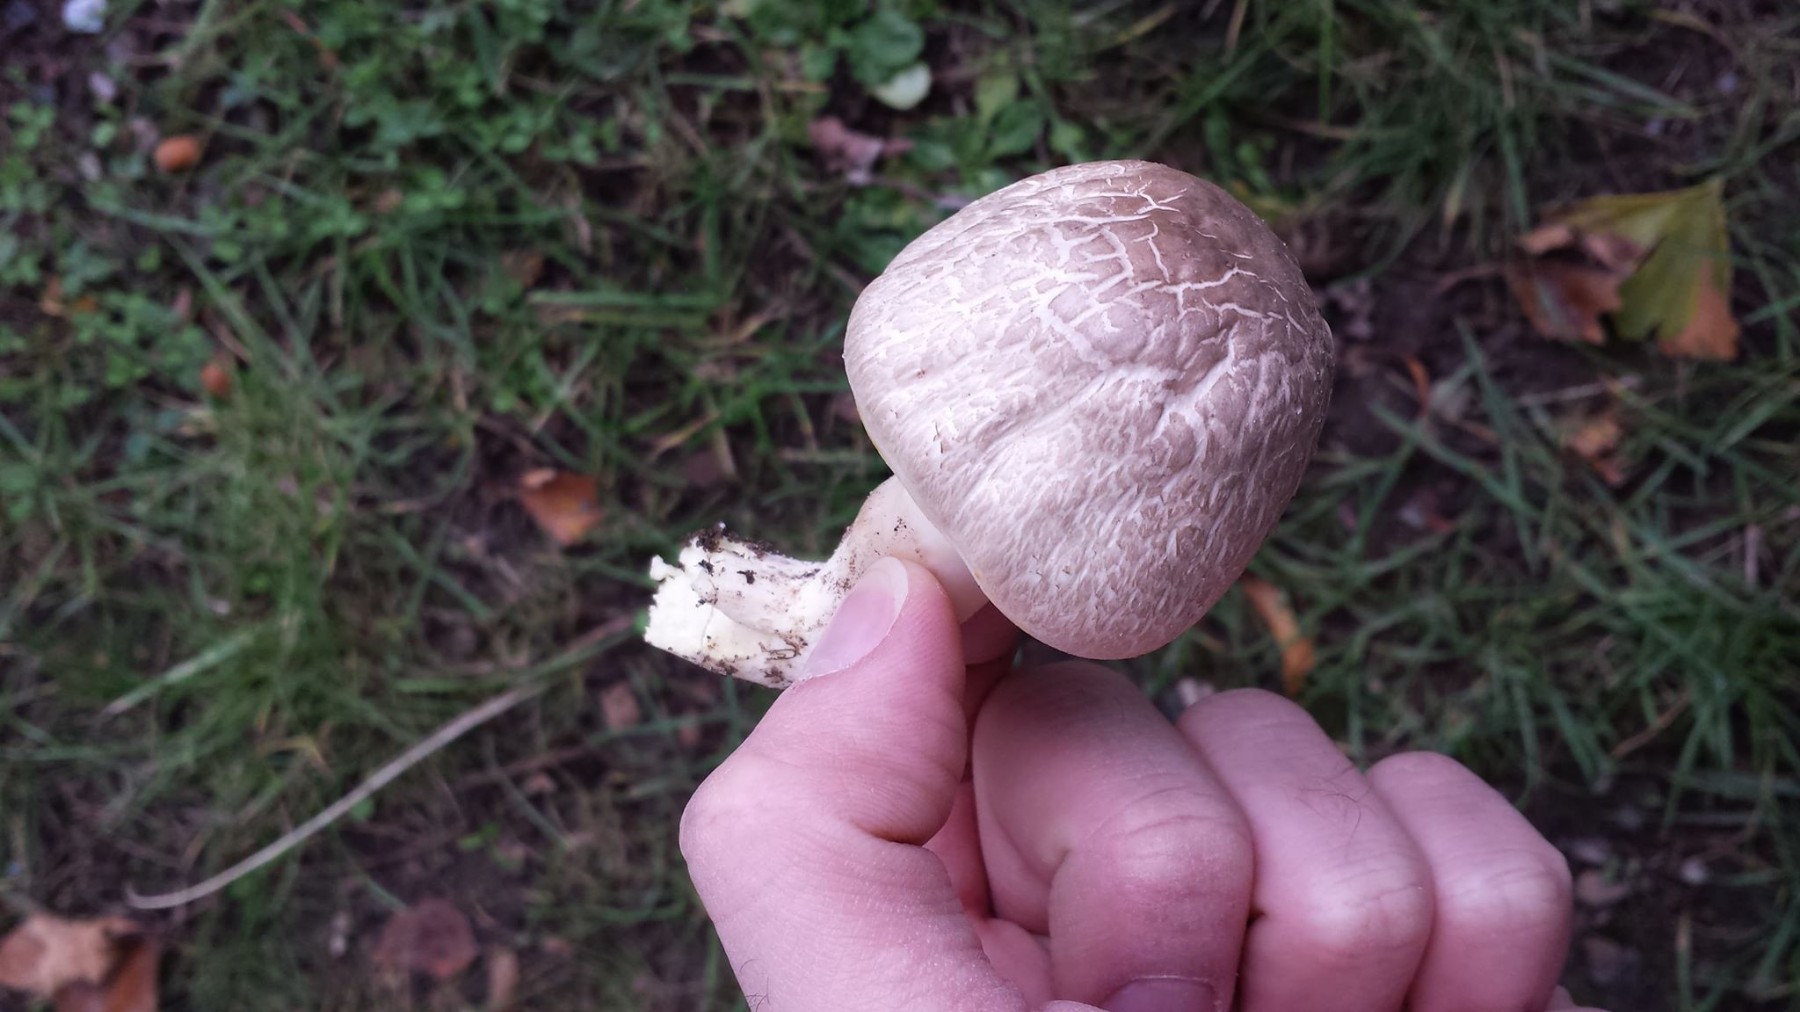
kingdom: Fungi
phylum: Basidiomycota
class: Agaricomycetes
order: Agaricales
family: Agaricaceae
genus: Agaricus
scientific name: Agaricus xanthodermus
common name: karbol-champignon
